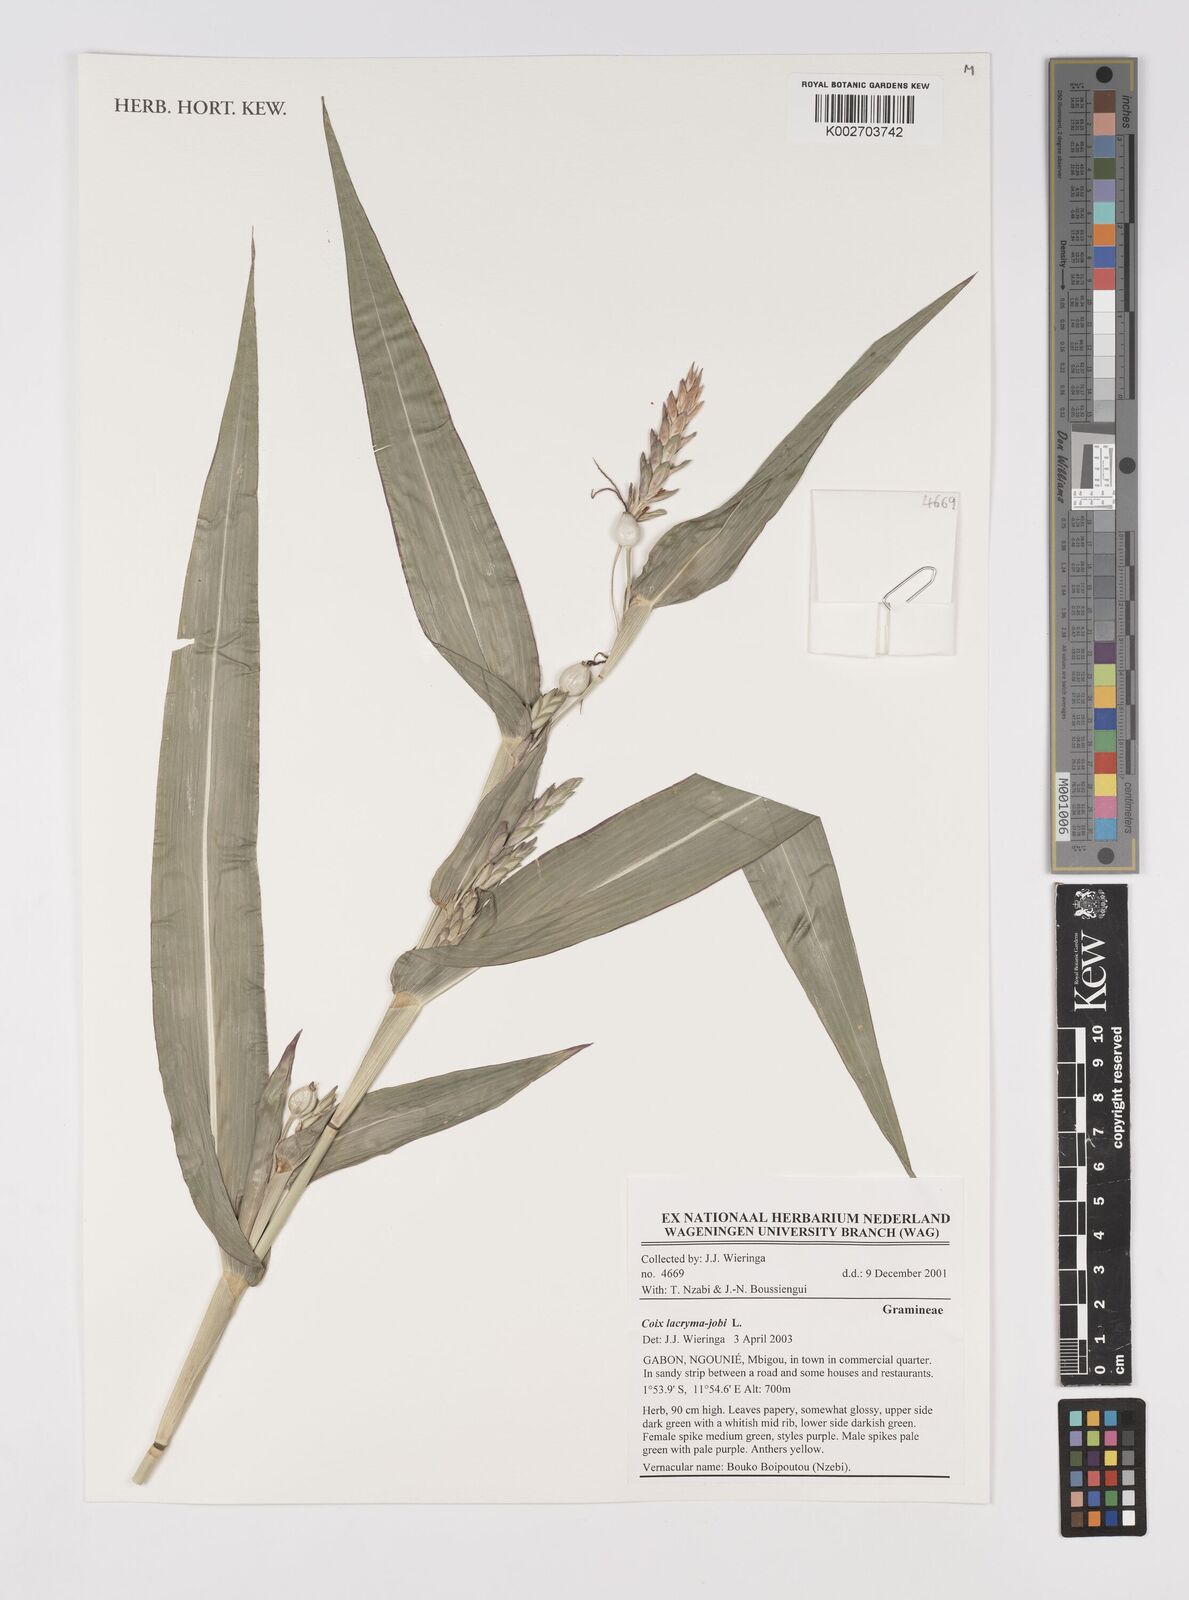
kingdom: Plantae
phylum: Tracheophyta
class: Liliopsida
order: Poales
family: Poaceae
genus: Coix
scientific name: Coix lacryma-jobi
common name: Job's tears
